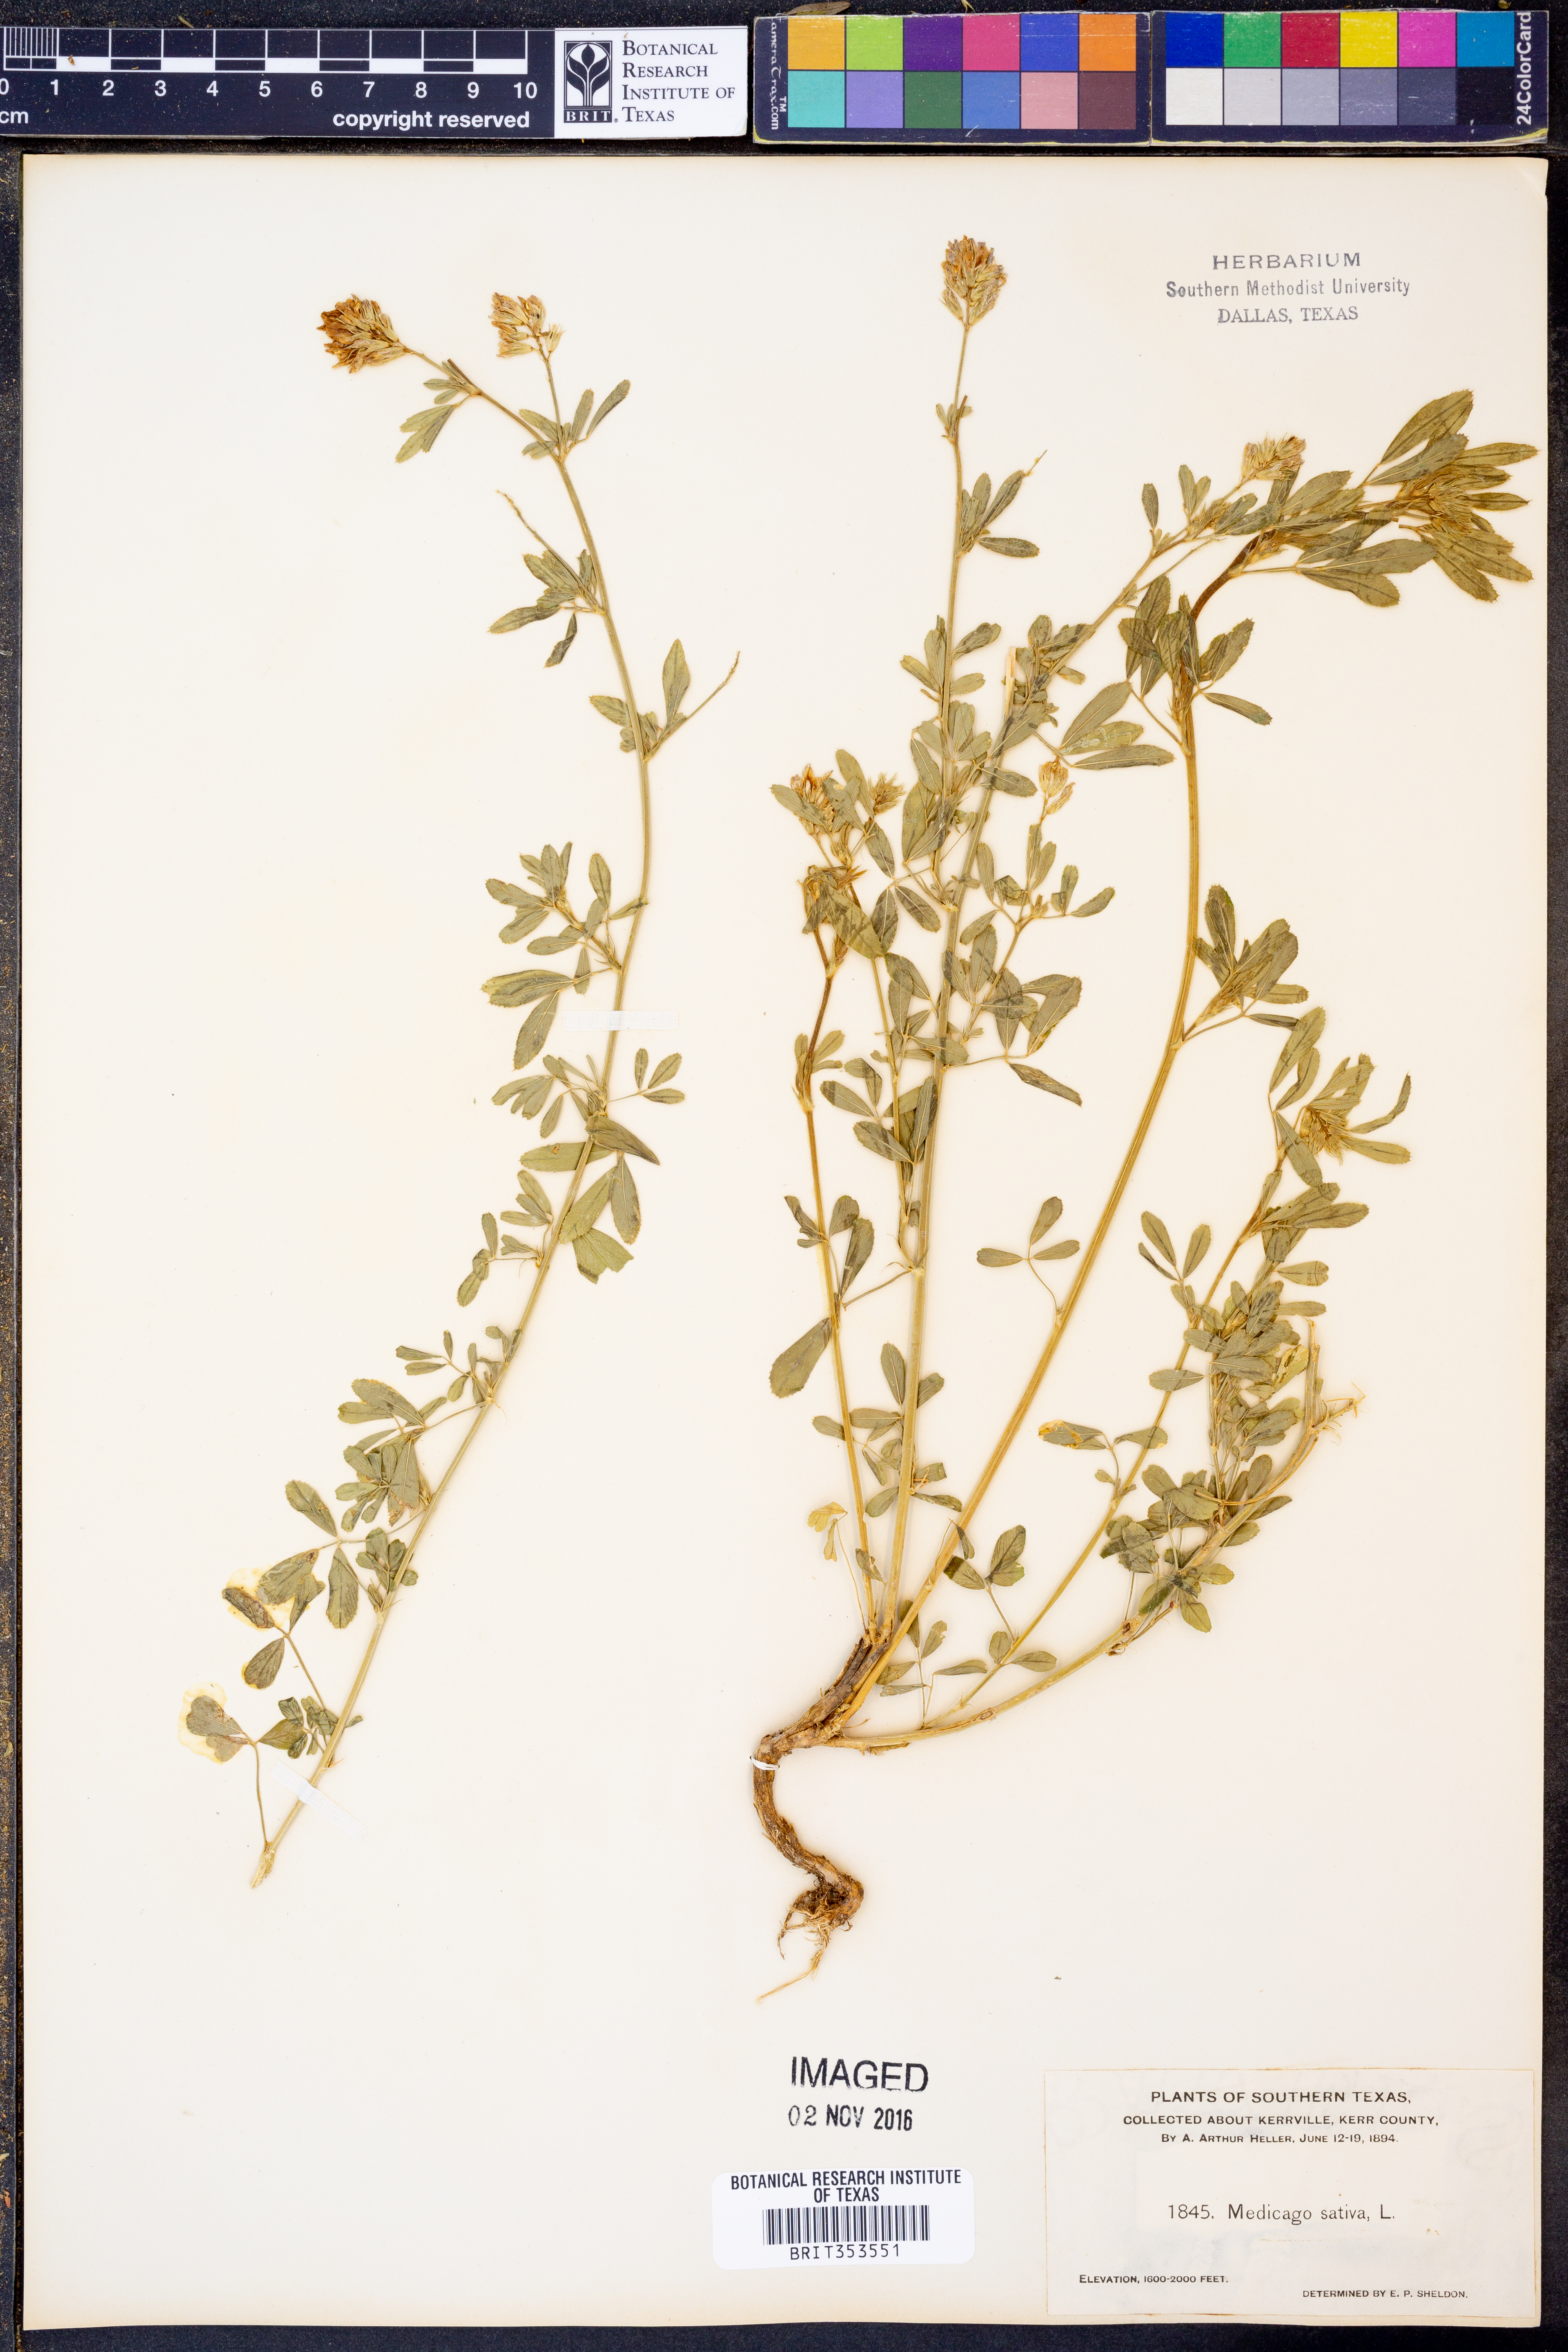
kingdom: Plantae
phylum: Tracheophyta
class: Magnoliopsida
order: Fabales
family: Fabaceae
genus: Medicago
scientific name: Medicago sativa
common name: Alfalfa
